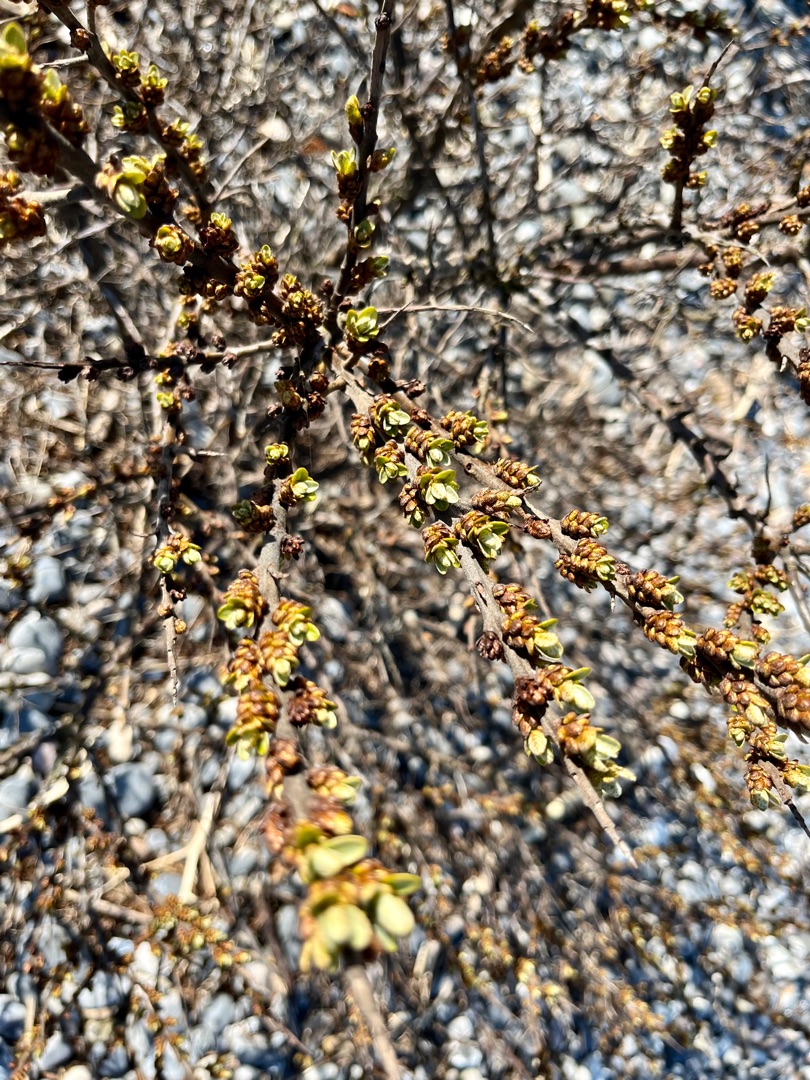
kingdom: Plantae
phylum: Tracheophyta
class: Magnoliopsida
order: Rosales
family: Elaeagnaceae
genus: Hippophae
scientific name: Hippophae rhamnoides
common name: Havtorn
